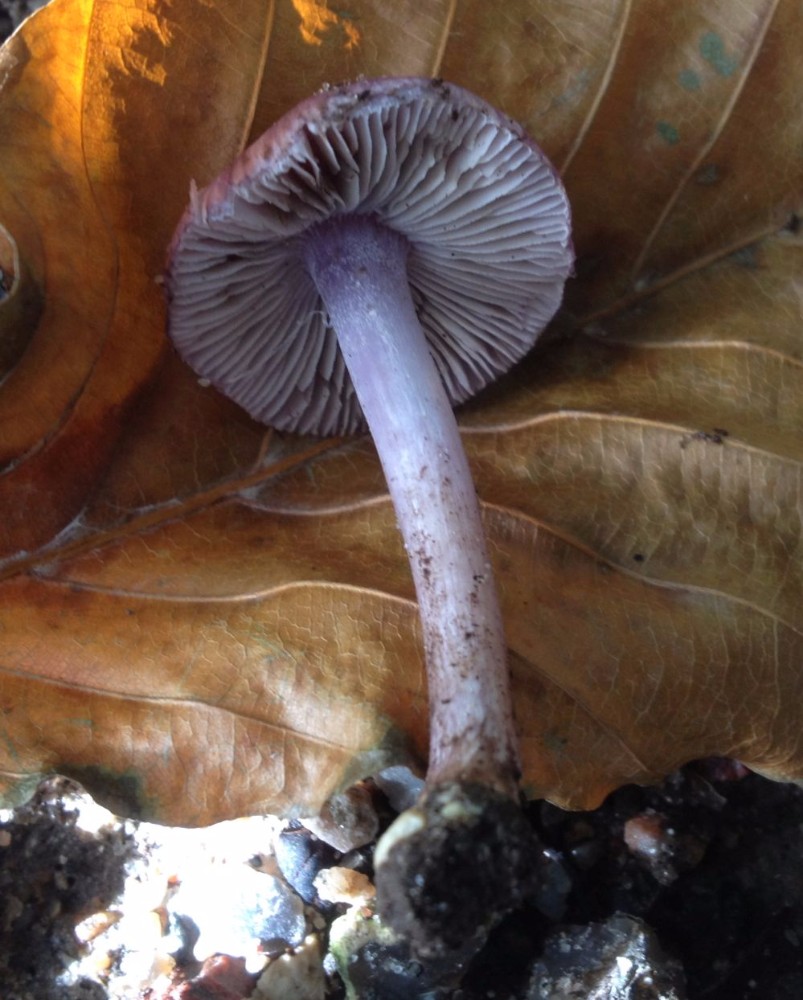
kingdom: Fungi
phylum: Basidiomycota
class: Agaricomycetes
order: Agaricales
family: Inocybaceae
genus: Inocybe
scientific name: Inocybe geophylla
